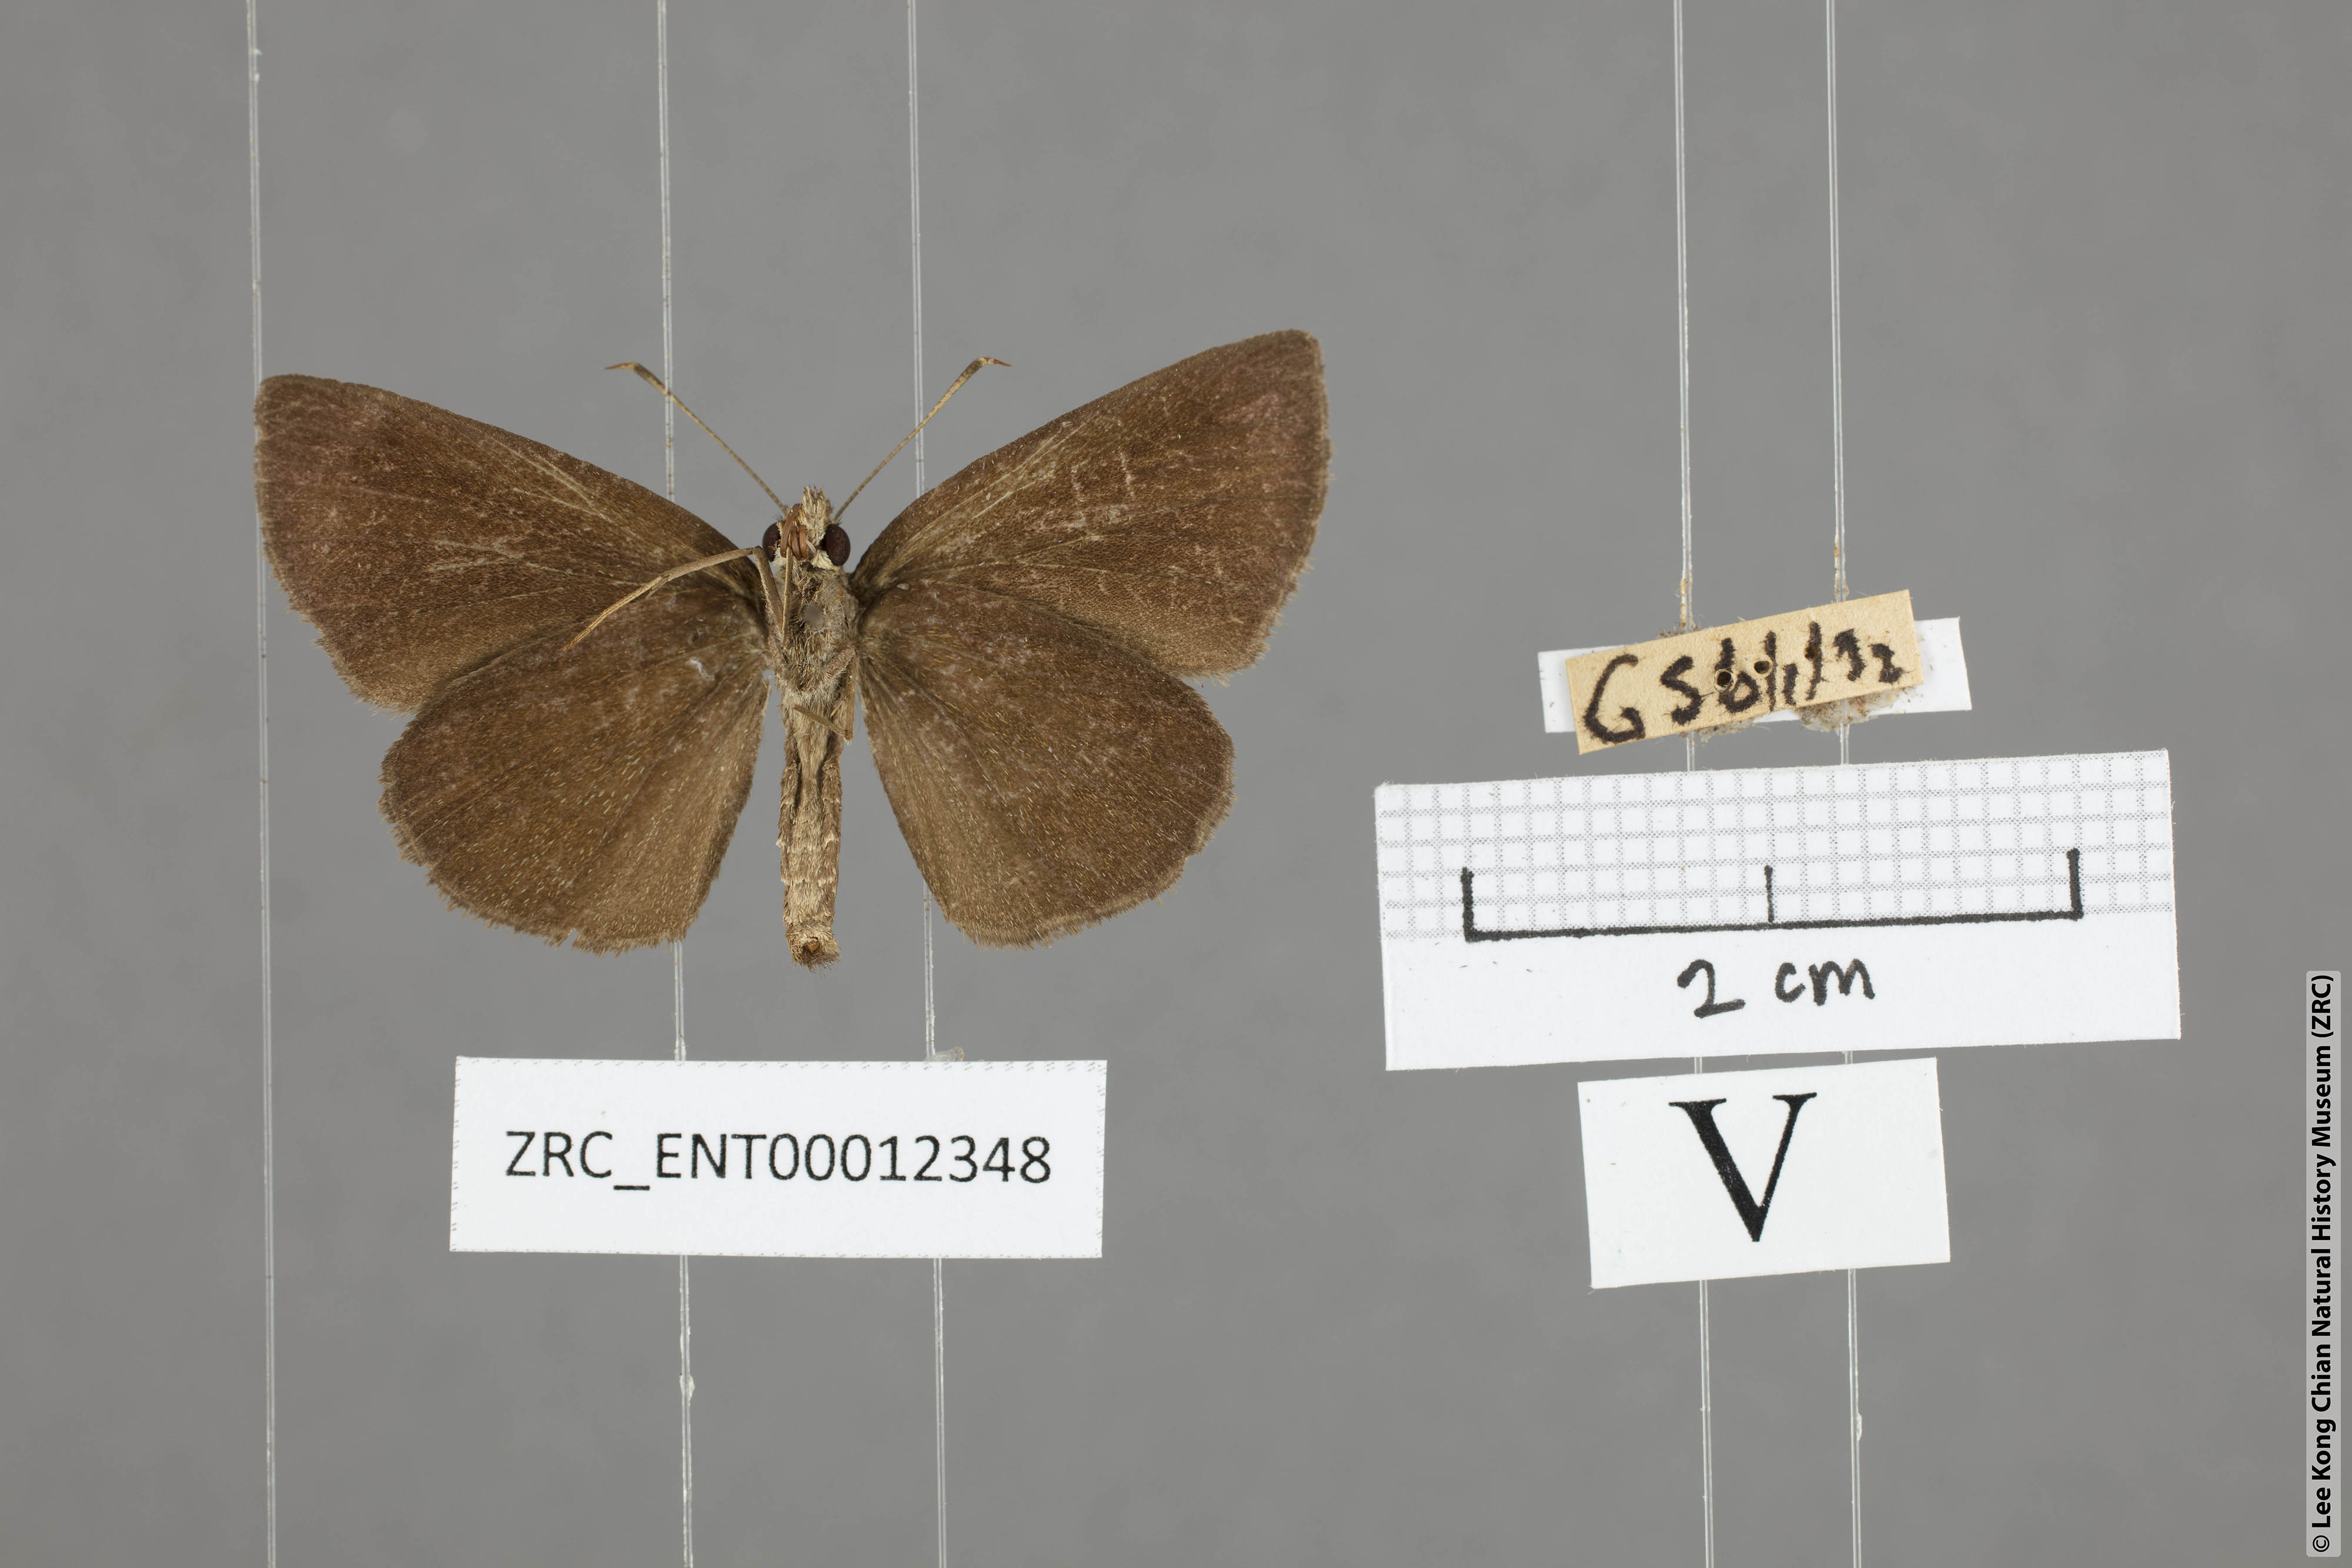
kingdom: Animalia
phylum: Arthropoda
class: Insecta
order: Lepidoptera
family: Hesperiidae
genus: Astictopterus
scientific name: Astictopterus jama
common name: Forest hopper
